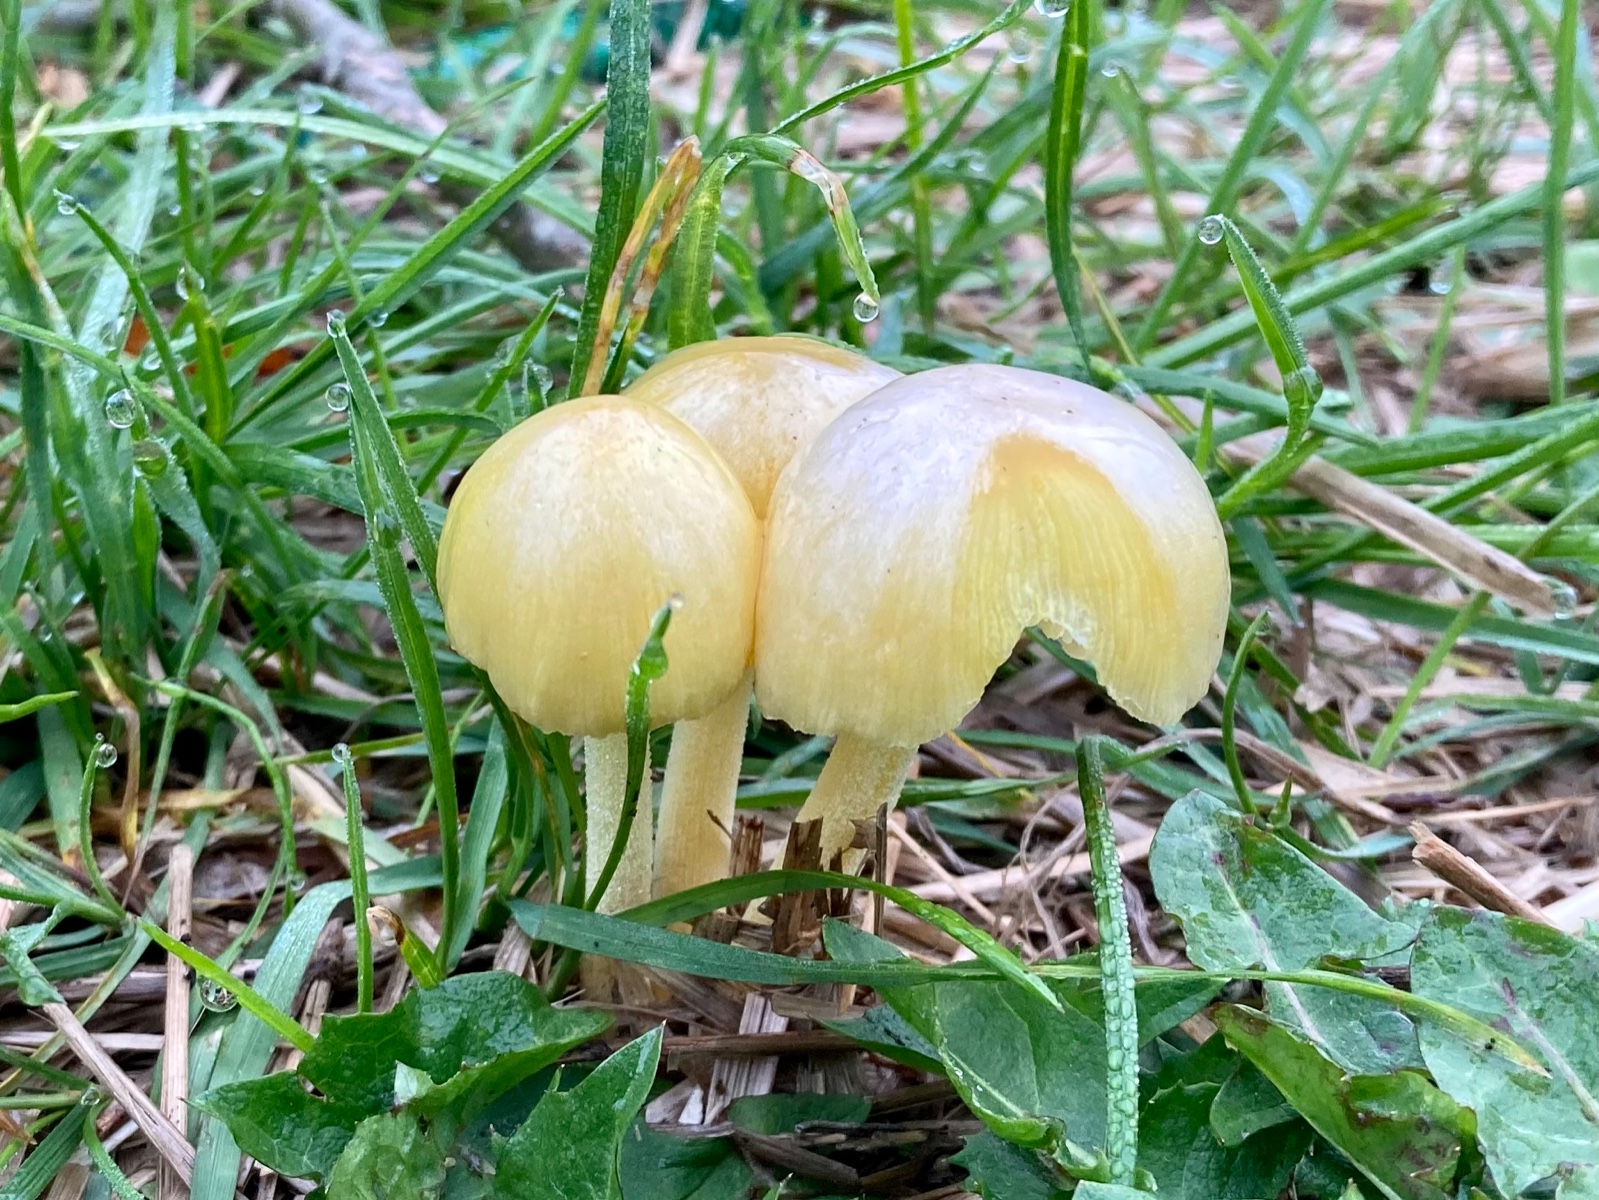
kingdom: Fungi
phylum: Basidiomycota
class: Agaricomycetes
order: Agaricales
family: Bolbitiaceae
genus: Bolbitius
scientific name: Bolbitius titubans
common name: almindelig gulhat
